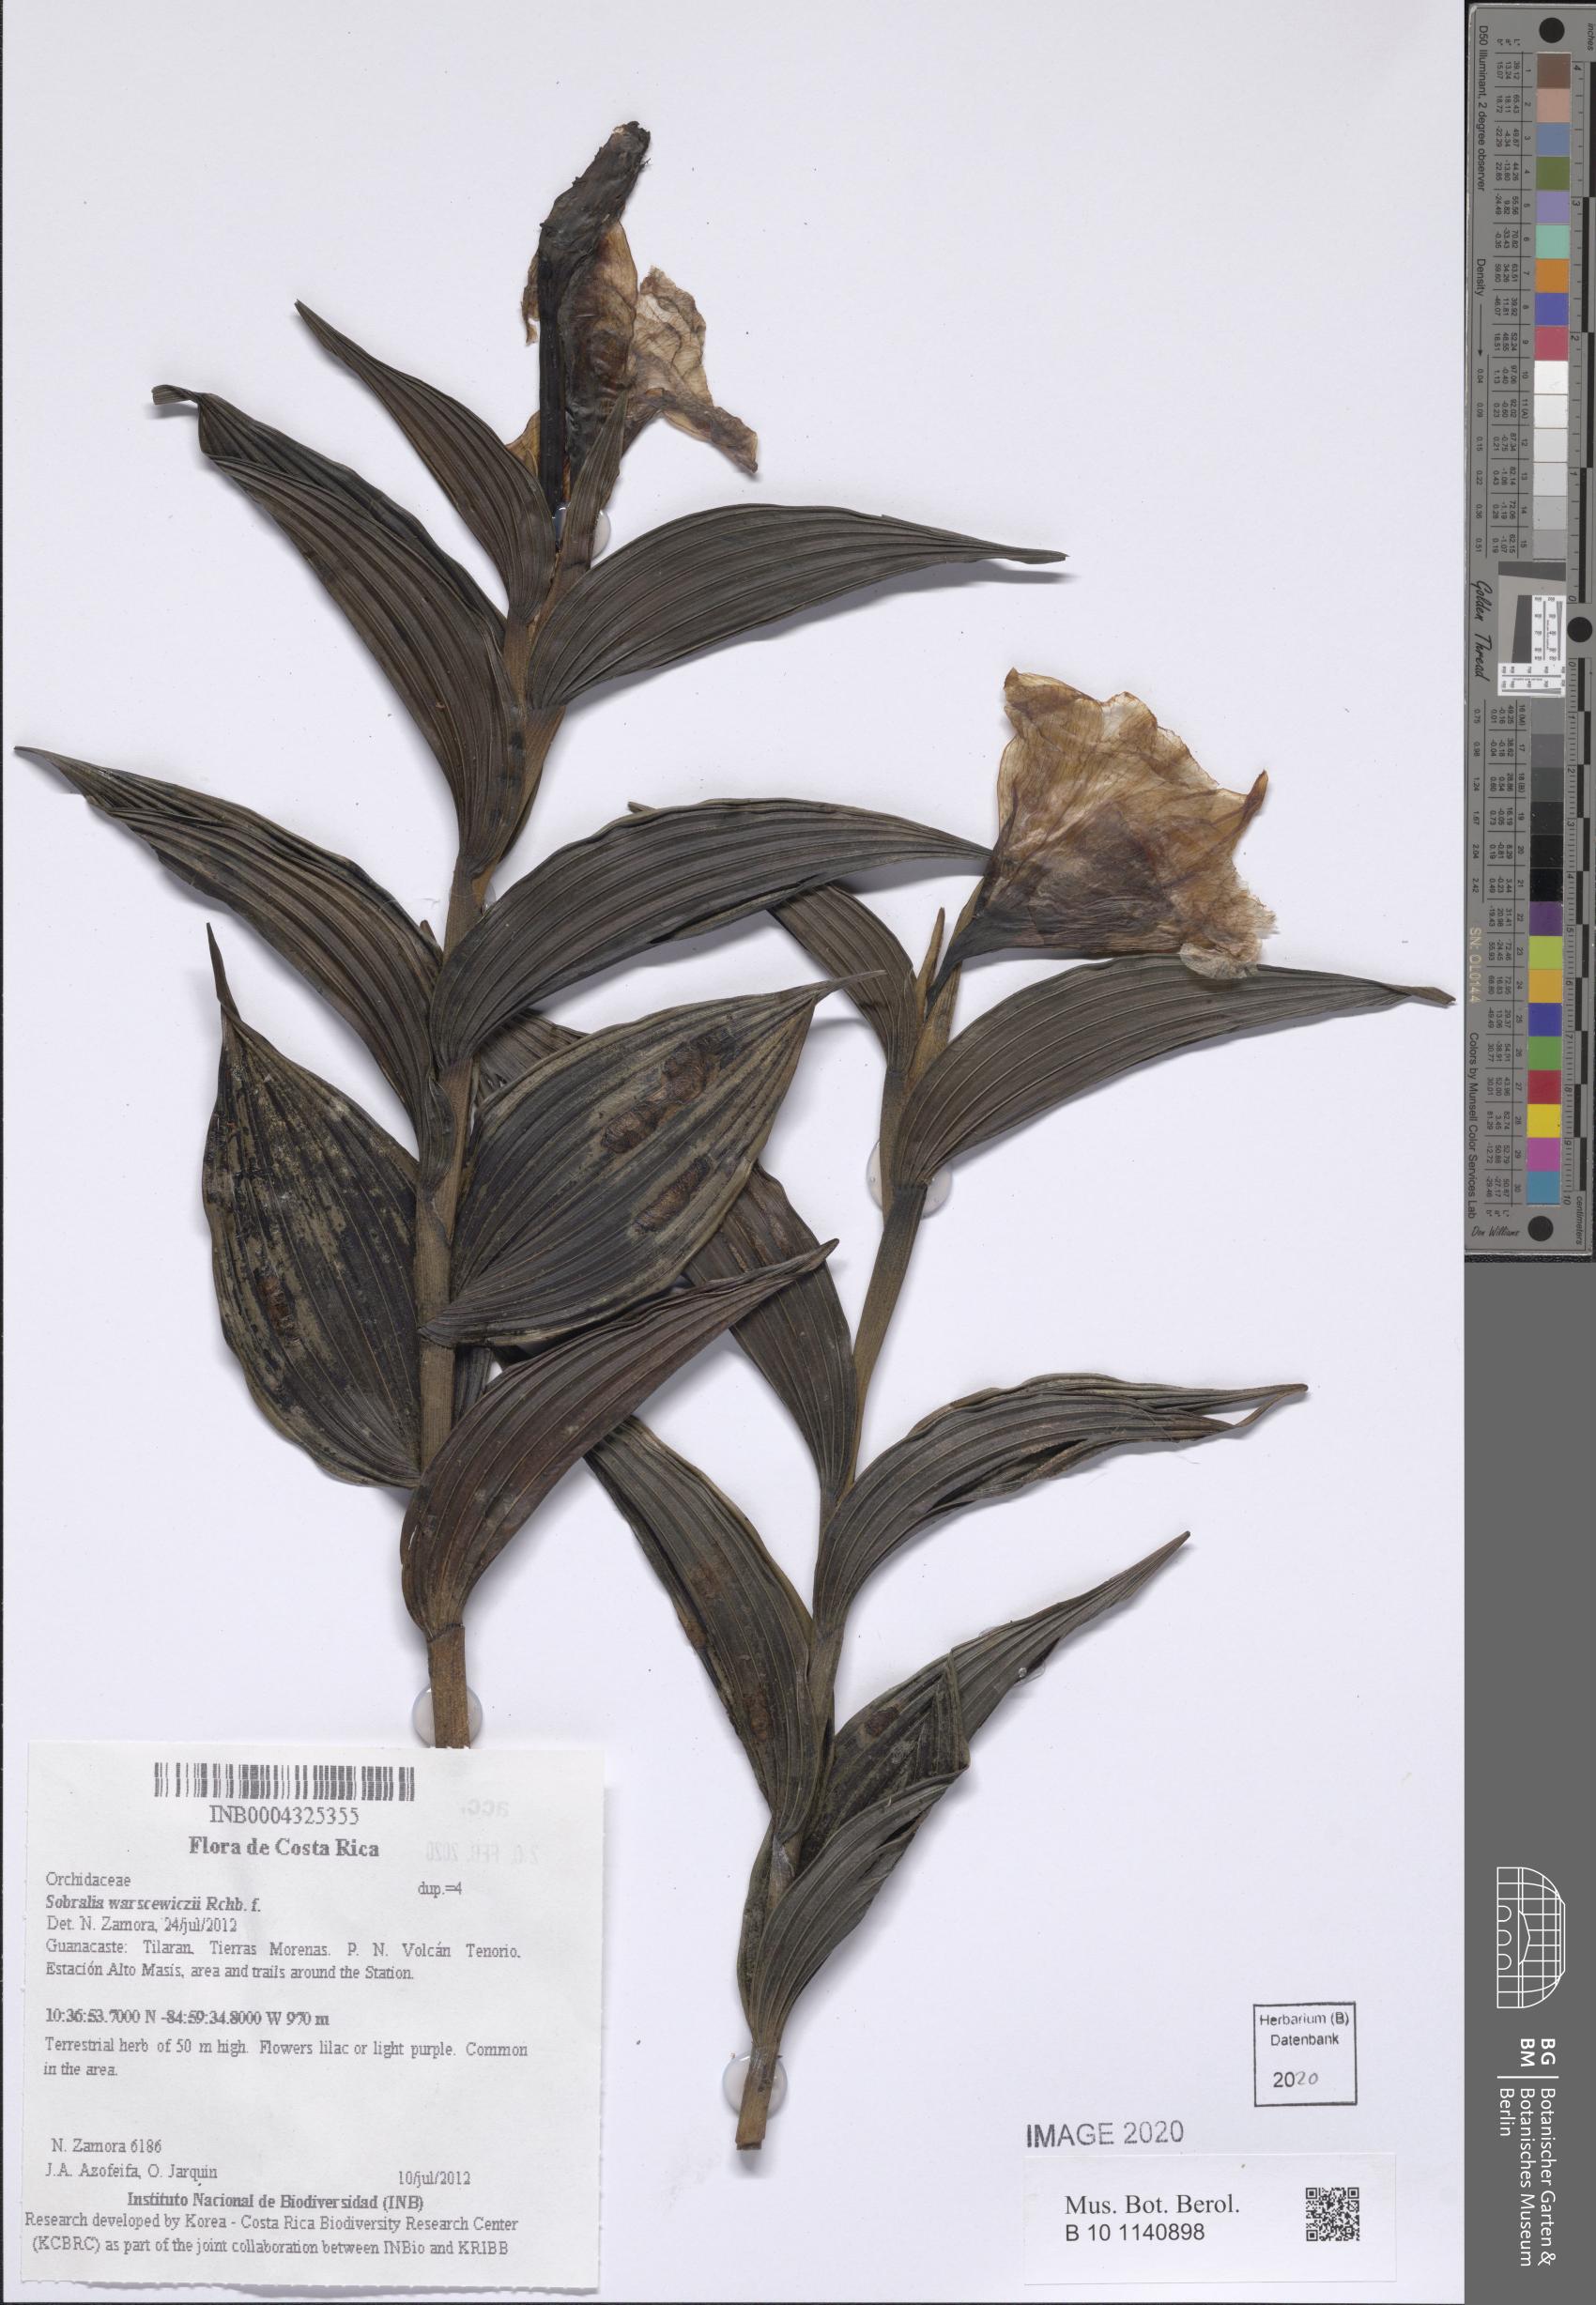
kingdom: Plantae
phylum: Tracheophyta
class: Liliopsida
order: Asparagales
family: Orchidaceae
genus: Sobralia
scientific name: Sobralia warszewiczii
